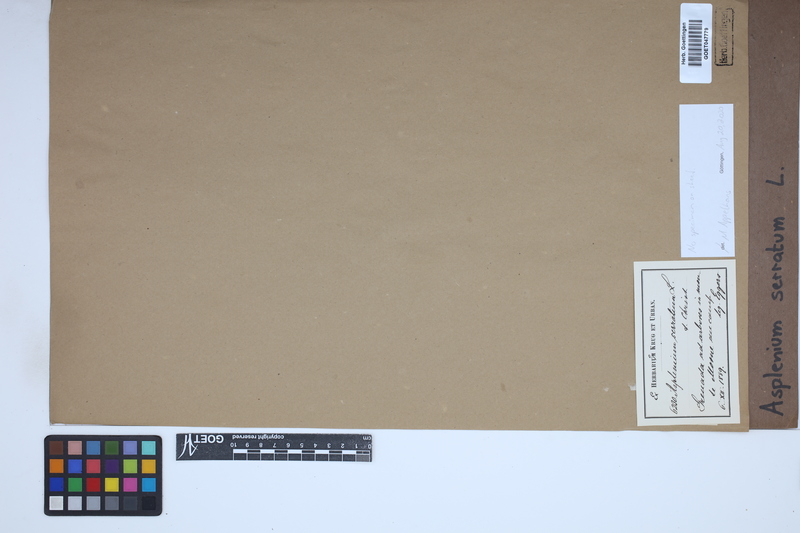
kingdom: Plantae
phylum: Tracheophyta
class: Polypodiopsida
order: Polypodiales
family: Aspleniaceae
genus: Asplenium
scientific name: Asplenium serratum
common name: Wild birdnest fern
